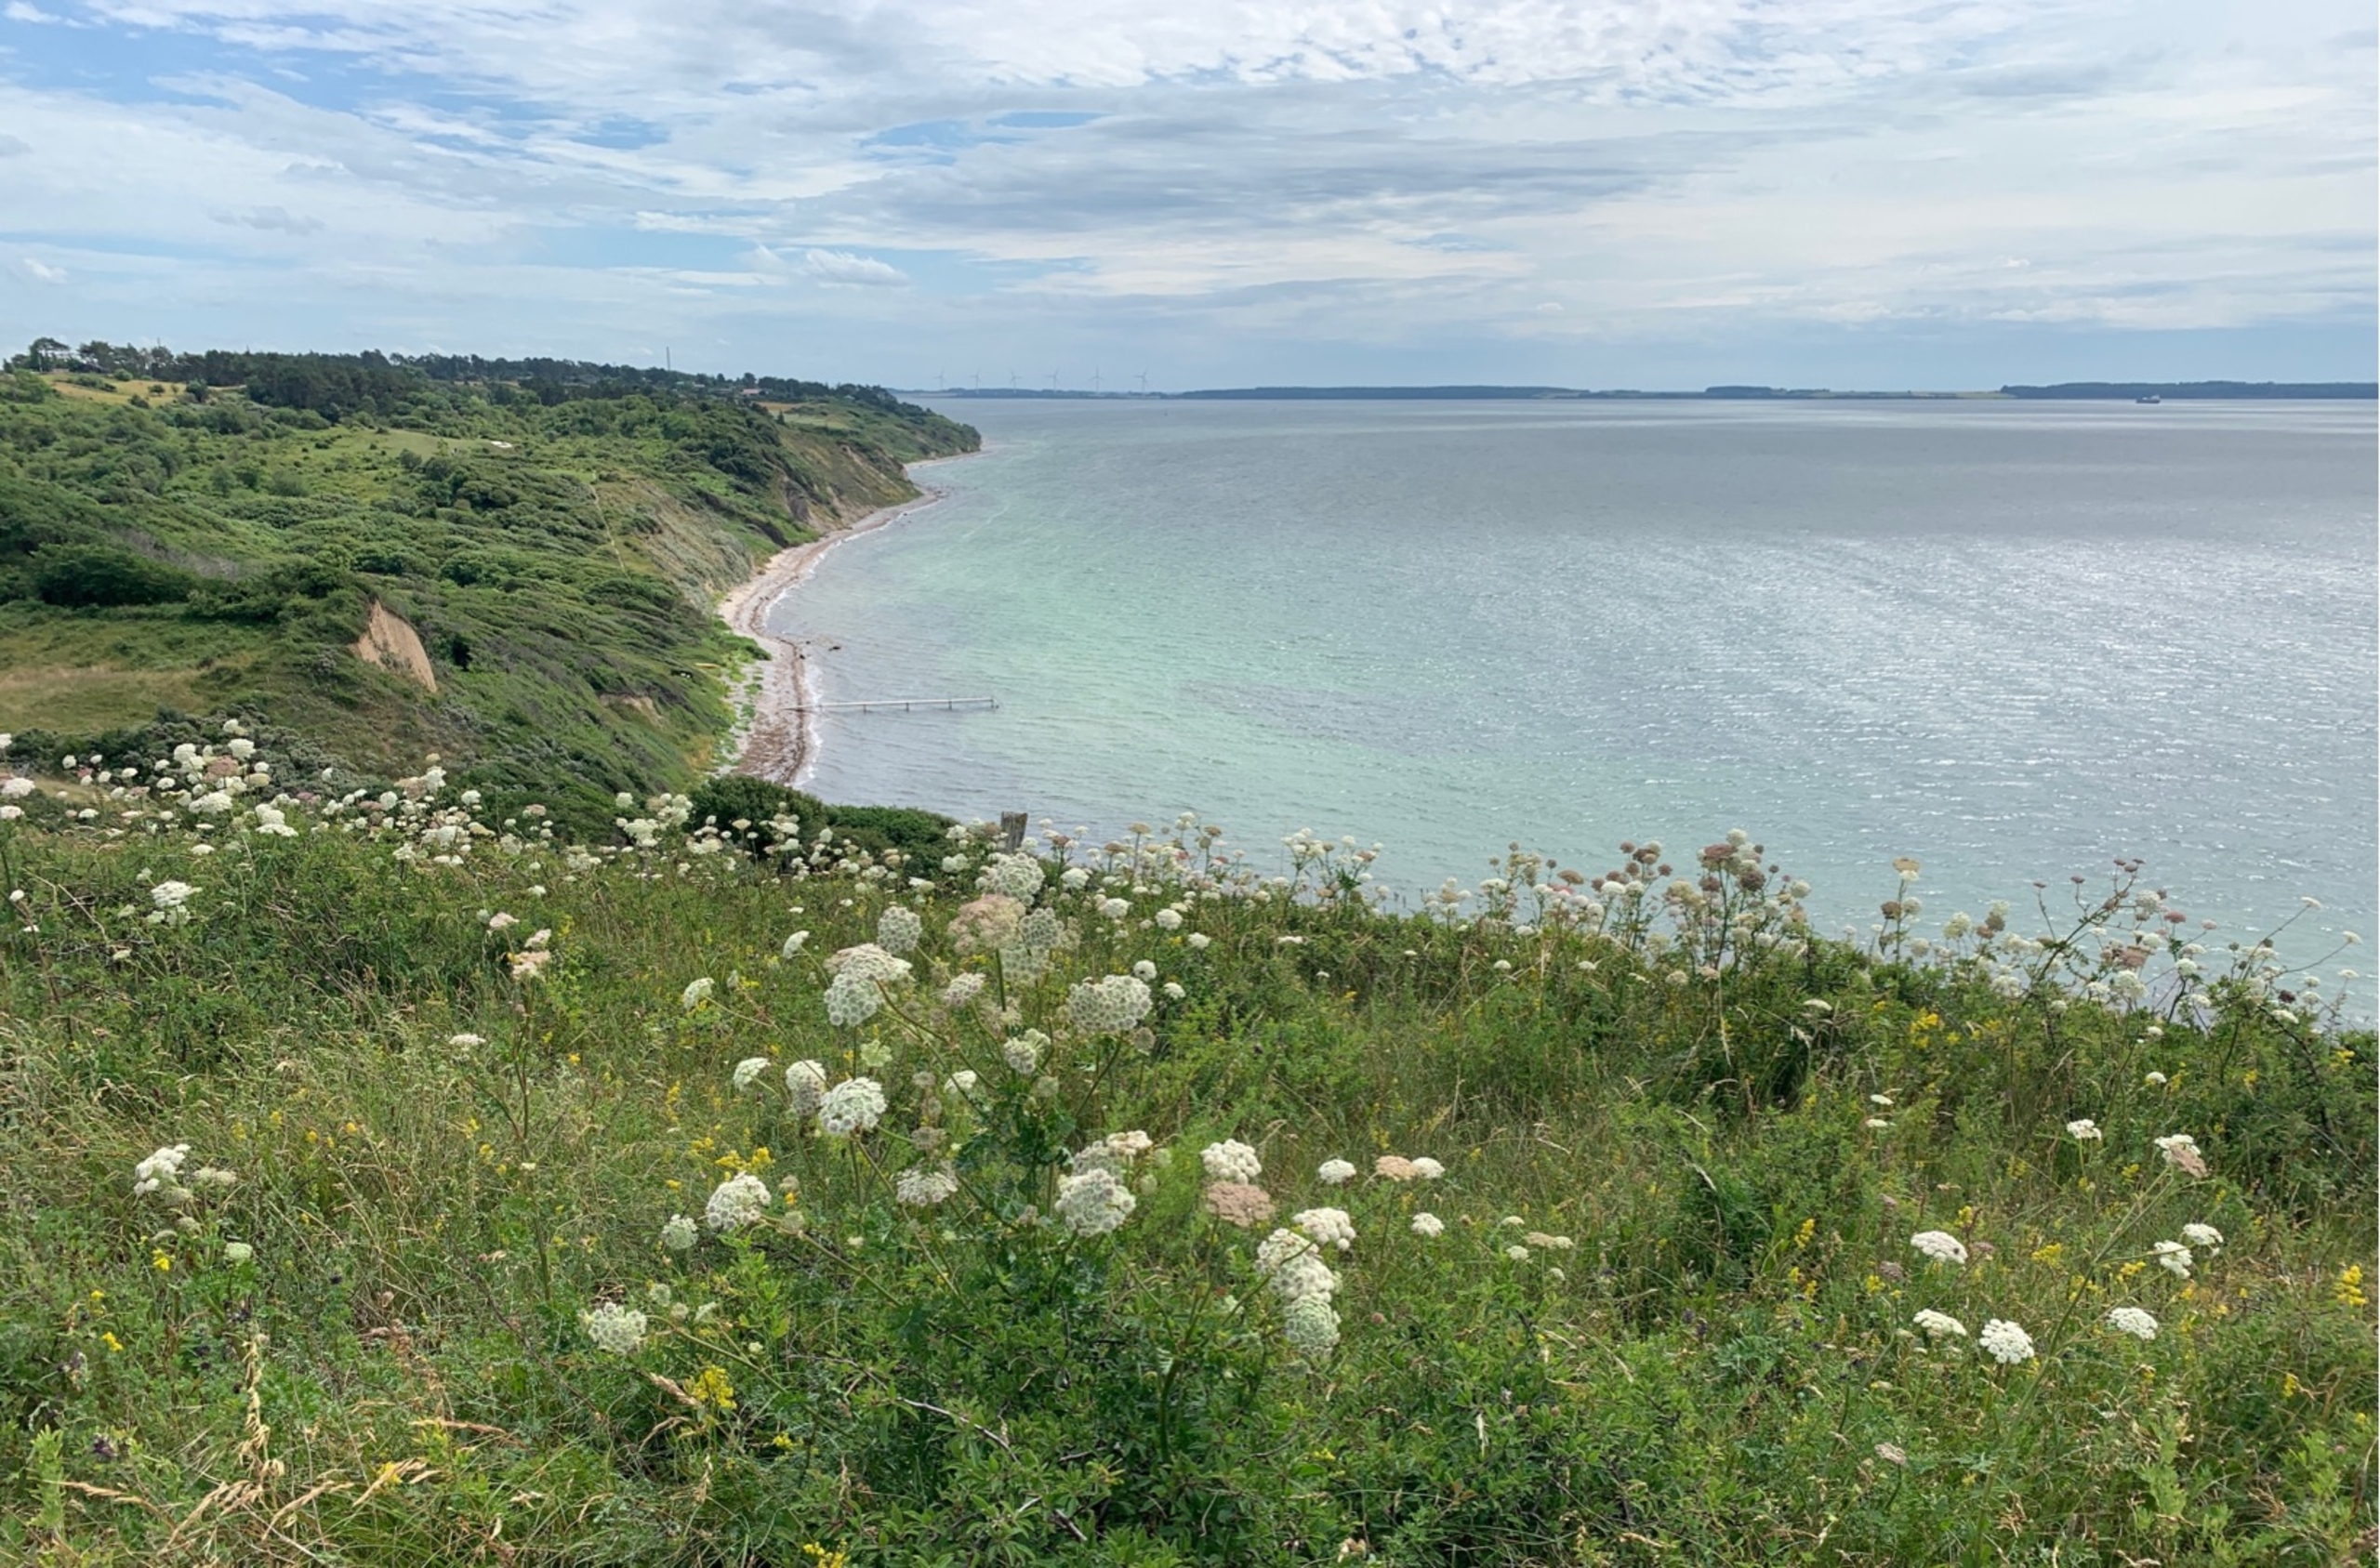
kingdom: Plantae
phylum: Tracheophyta
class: Magnoliopsida
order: Apiales
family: Apiaceae
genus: Seseli
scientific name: Seseli libanotis
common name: Hjorterod
